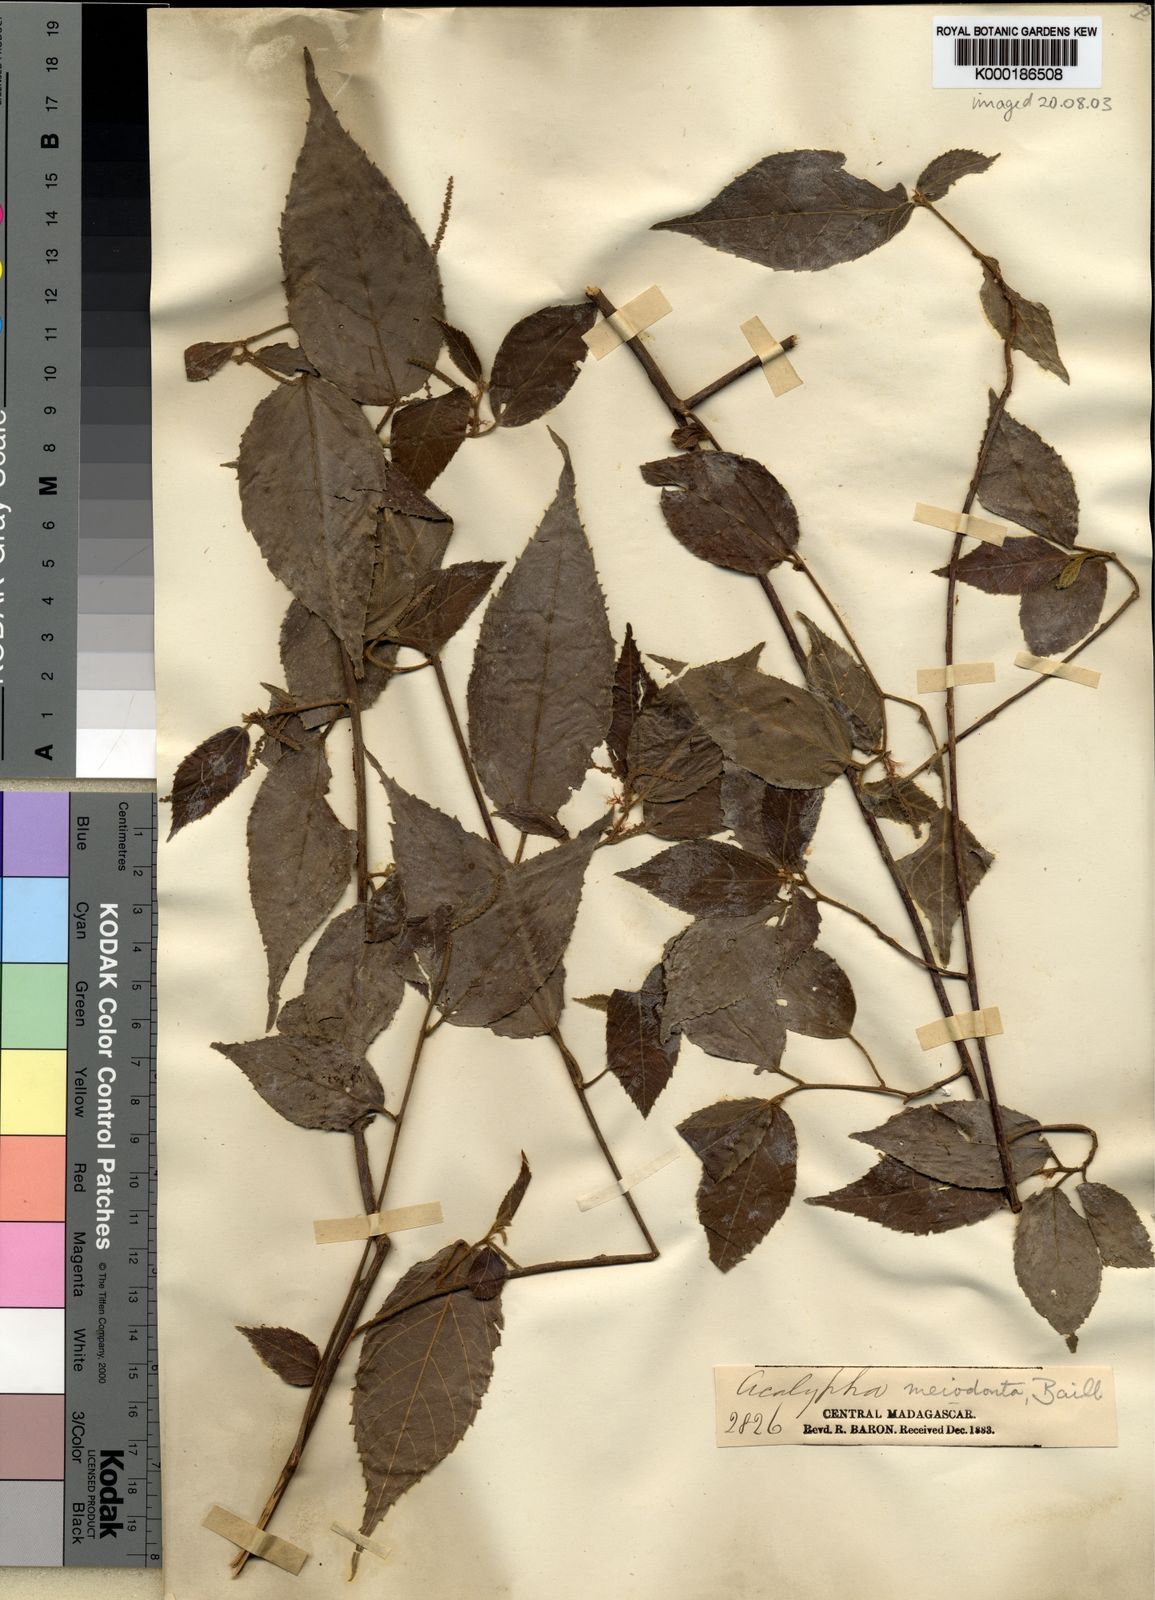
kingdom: Plantae
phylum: Tracheophyta
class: Magnoliopsida
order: Malpighiales
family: Euphorbiaceae
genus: Acalypha
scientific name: Acalypha
